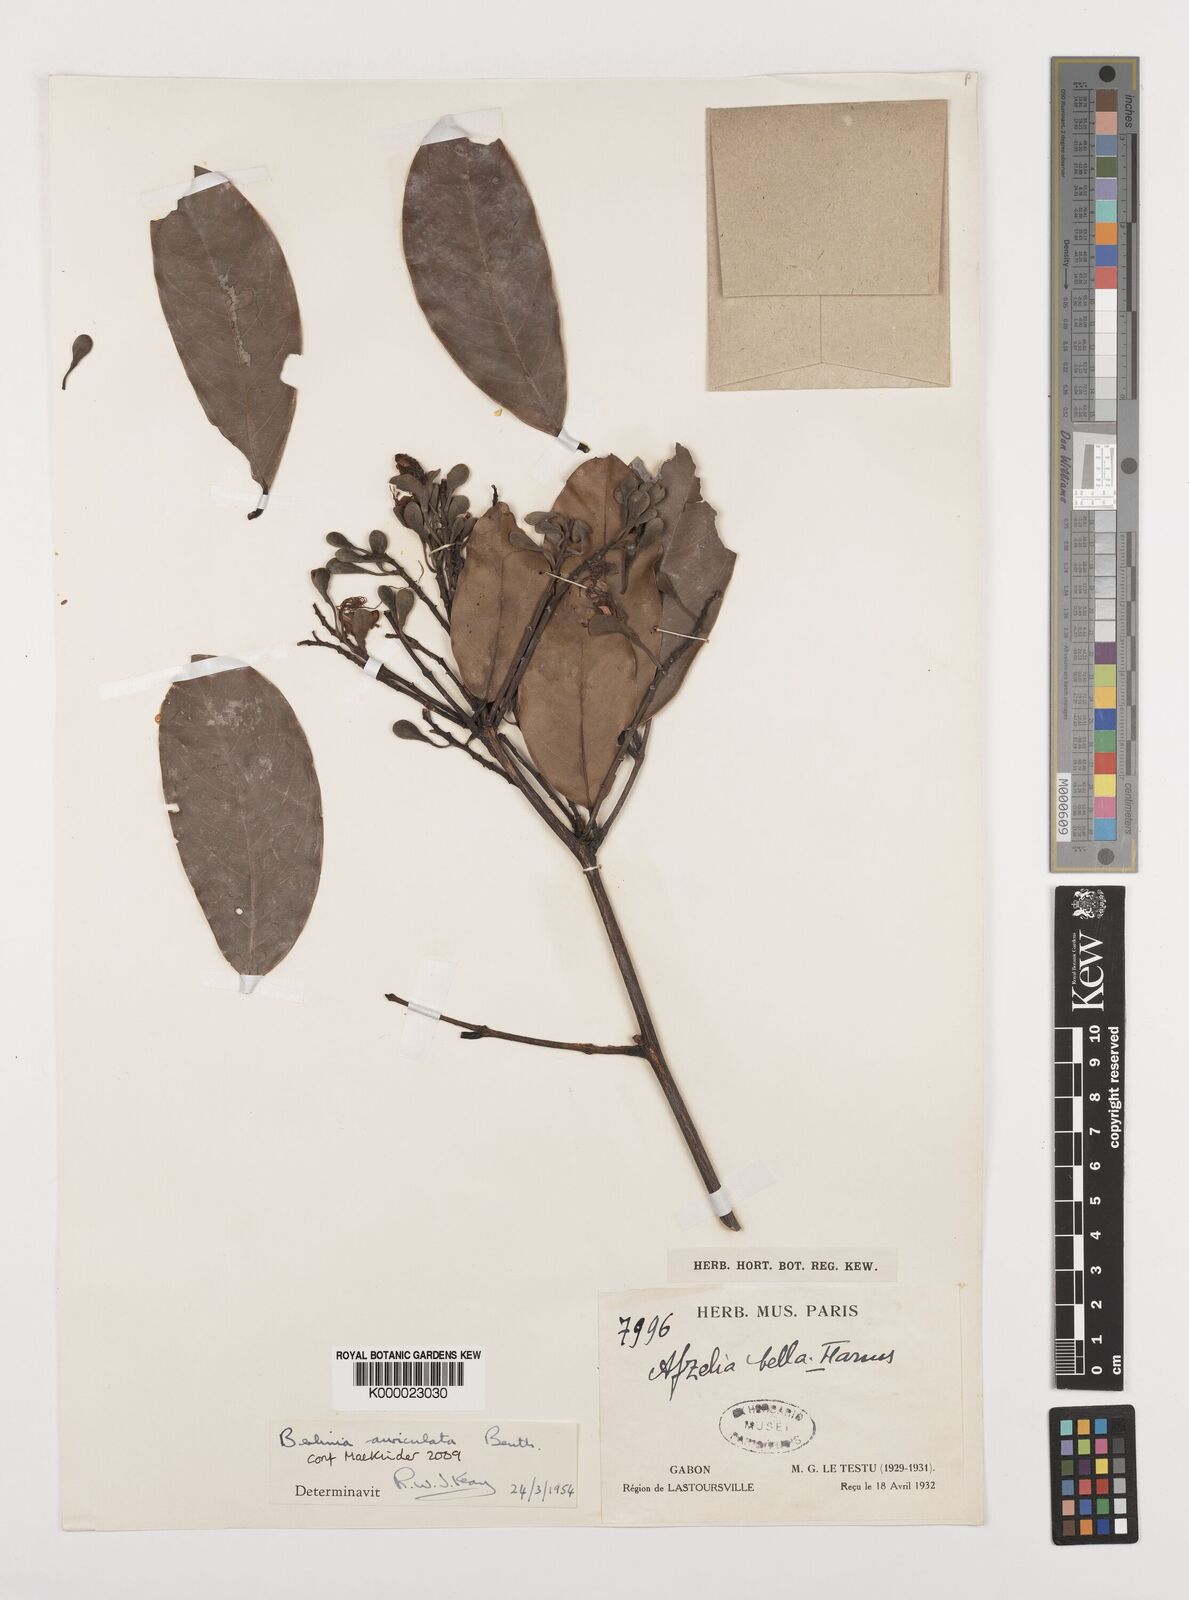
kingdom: Plantae
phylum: Tracheophyta
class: Magnoliopsida
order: Fabales
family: Fabaceae
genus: Berlinia
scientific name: Berlinia auriculata
